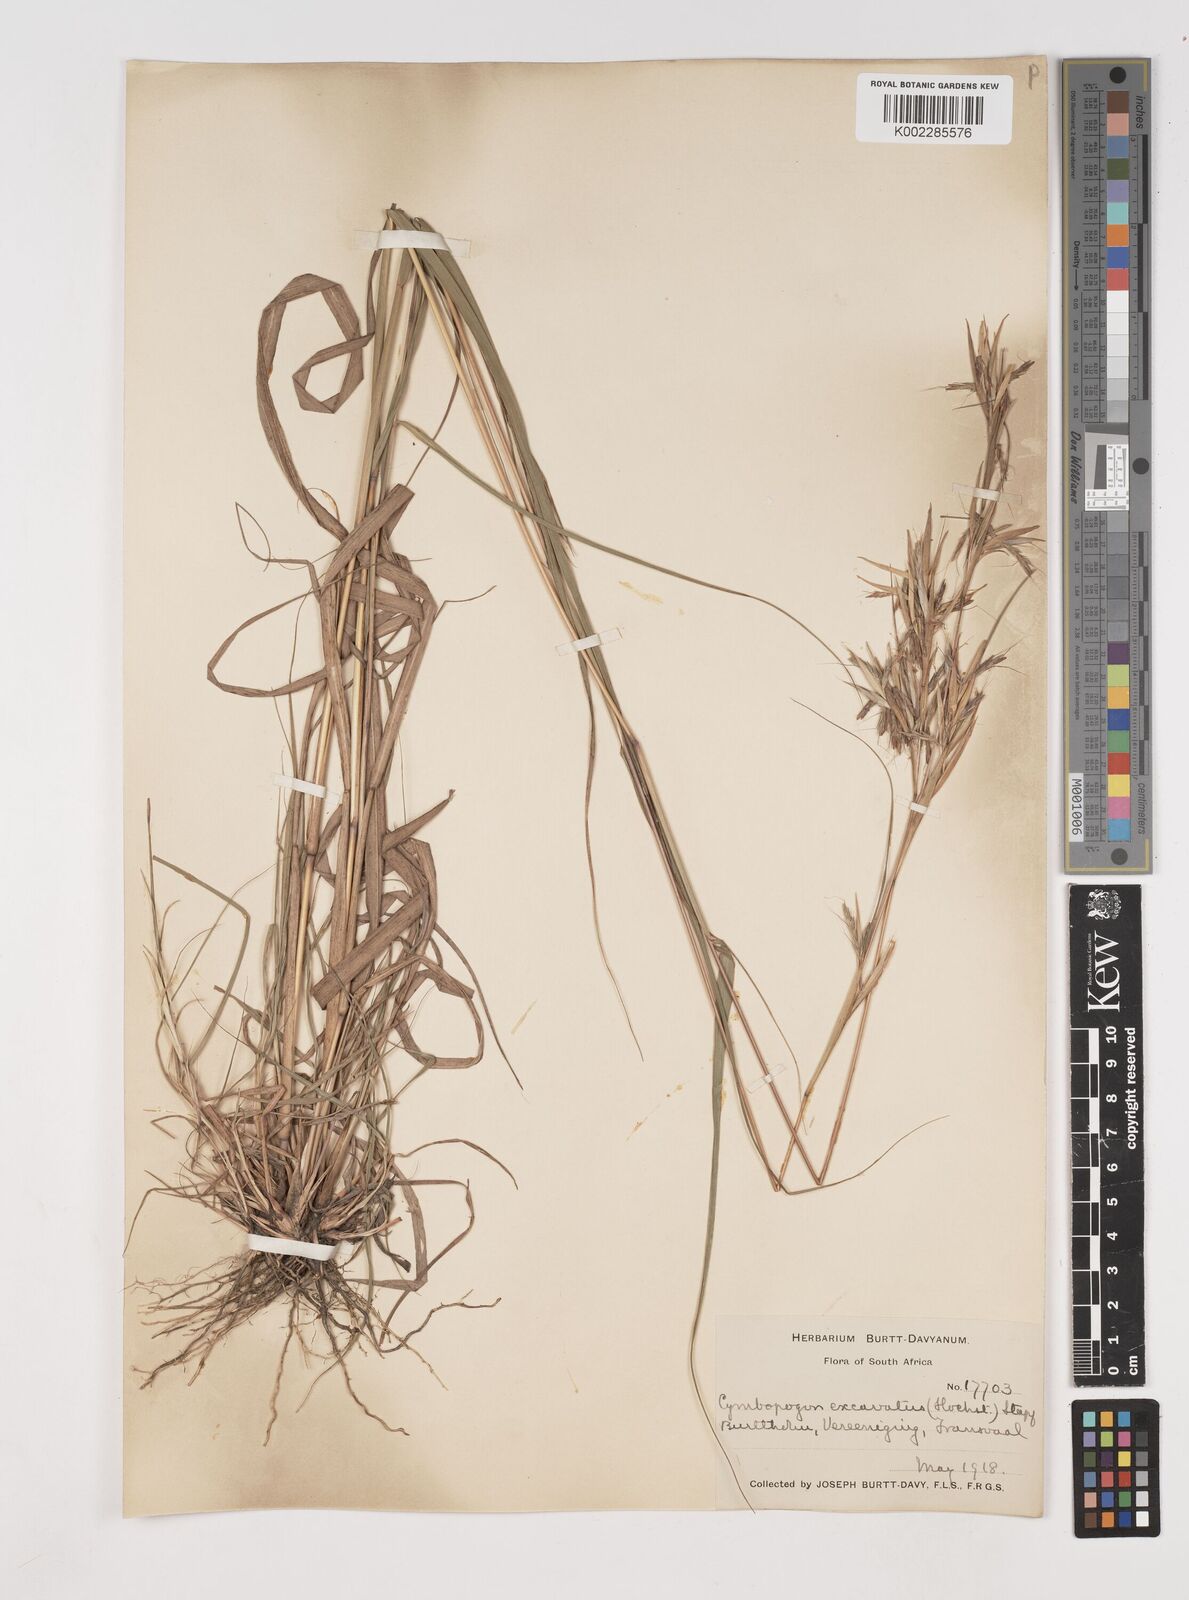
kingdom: Plantae
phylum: Tracheophyta
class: Liliopsida
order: Poales
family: Poaceae
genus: Cymbopogon
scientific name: Cymbopogon caesius
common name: Kachi grass
